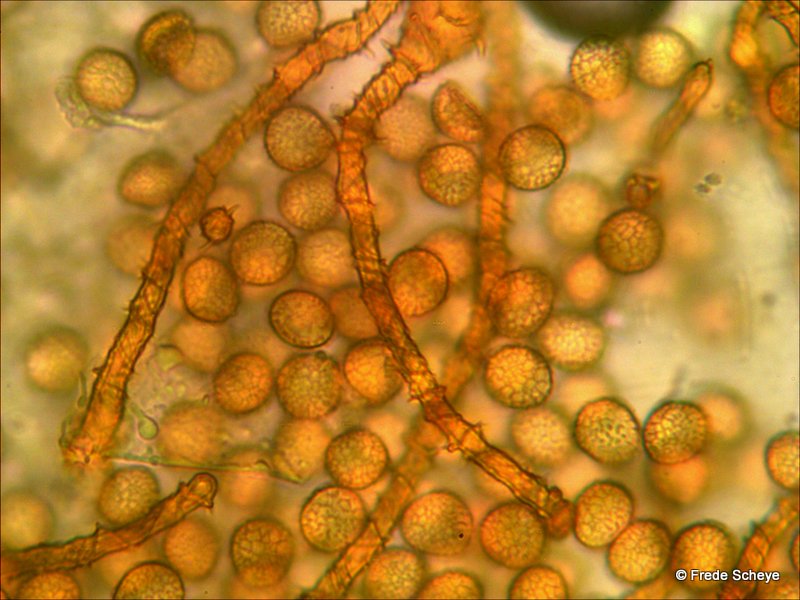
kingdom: Protozoa
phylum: Mycetozoa
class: Myxomycetes
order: Trichiales
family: Trichiaceae
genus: Trichia
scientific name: Trichia scabra
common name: tæppe-hårbold
